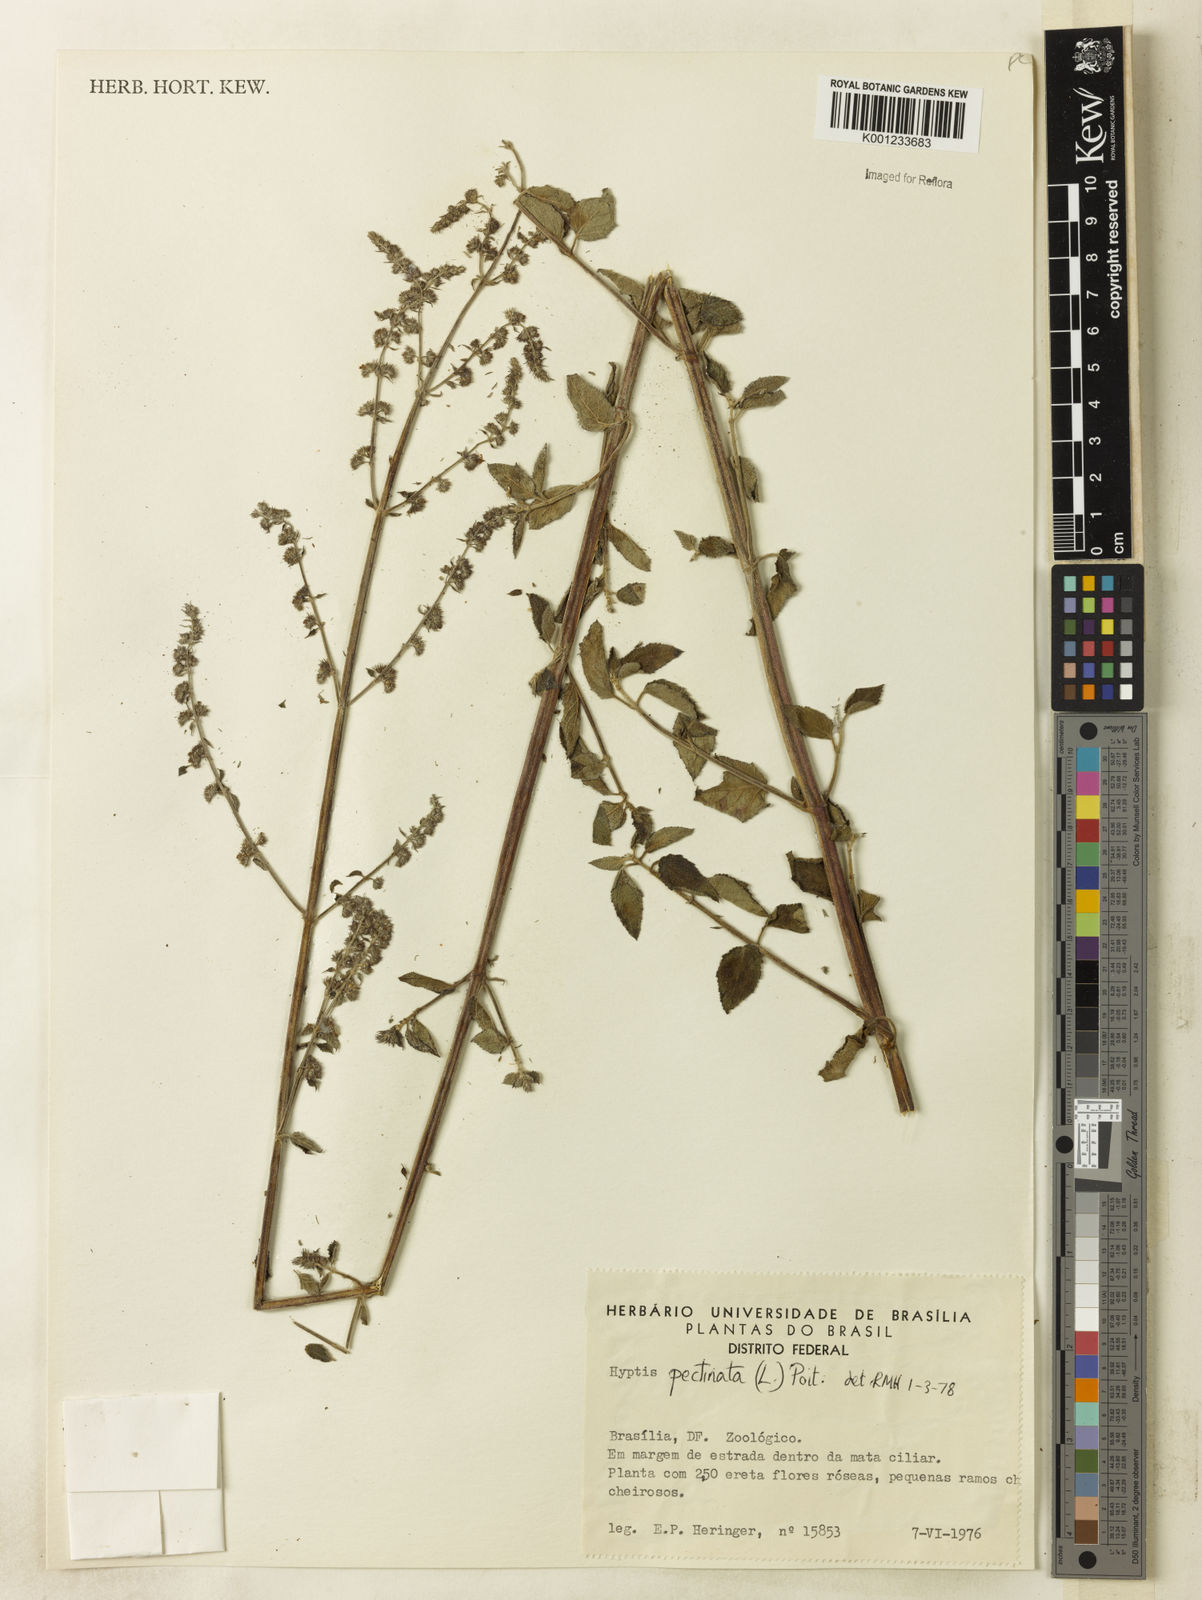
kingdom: Plantae
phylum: Tracheophyta
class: Magnoliopsida
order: Lamiales
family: Lamiaceae
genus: Mesosphaerum
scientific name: Mesosphaerum pectinatum
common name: Comb hyptis
